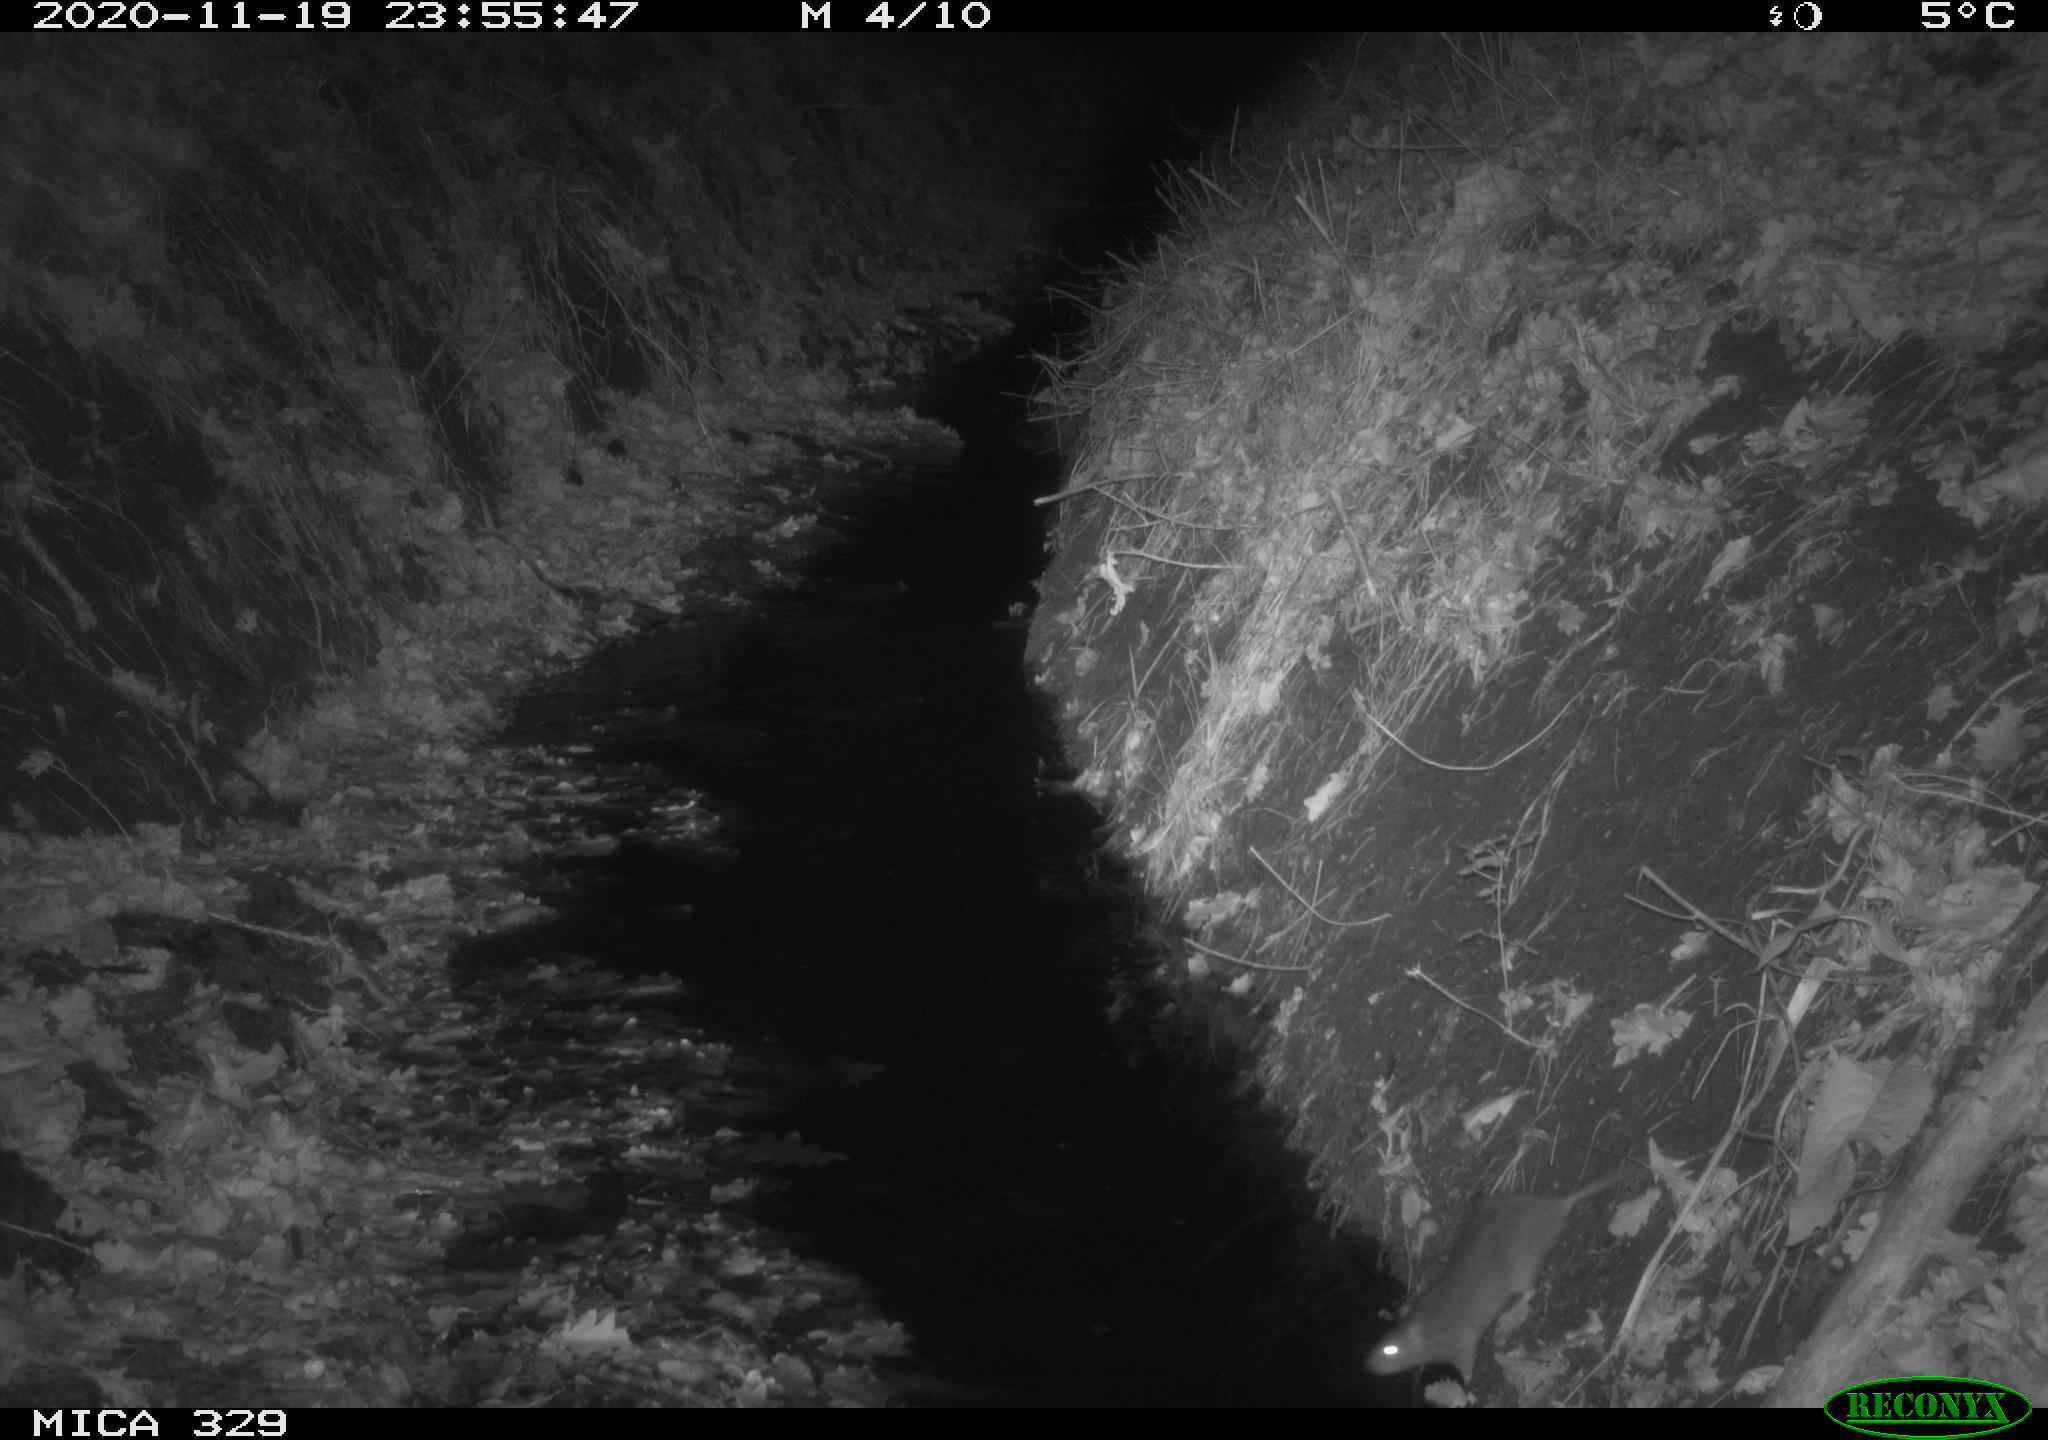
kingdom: Animalia
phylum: Chordata
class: Mammalia
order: Rodentia
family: Muridae
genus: Rattus
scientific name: Rattus norvegicus
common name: Brown rat
